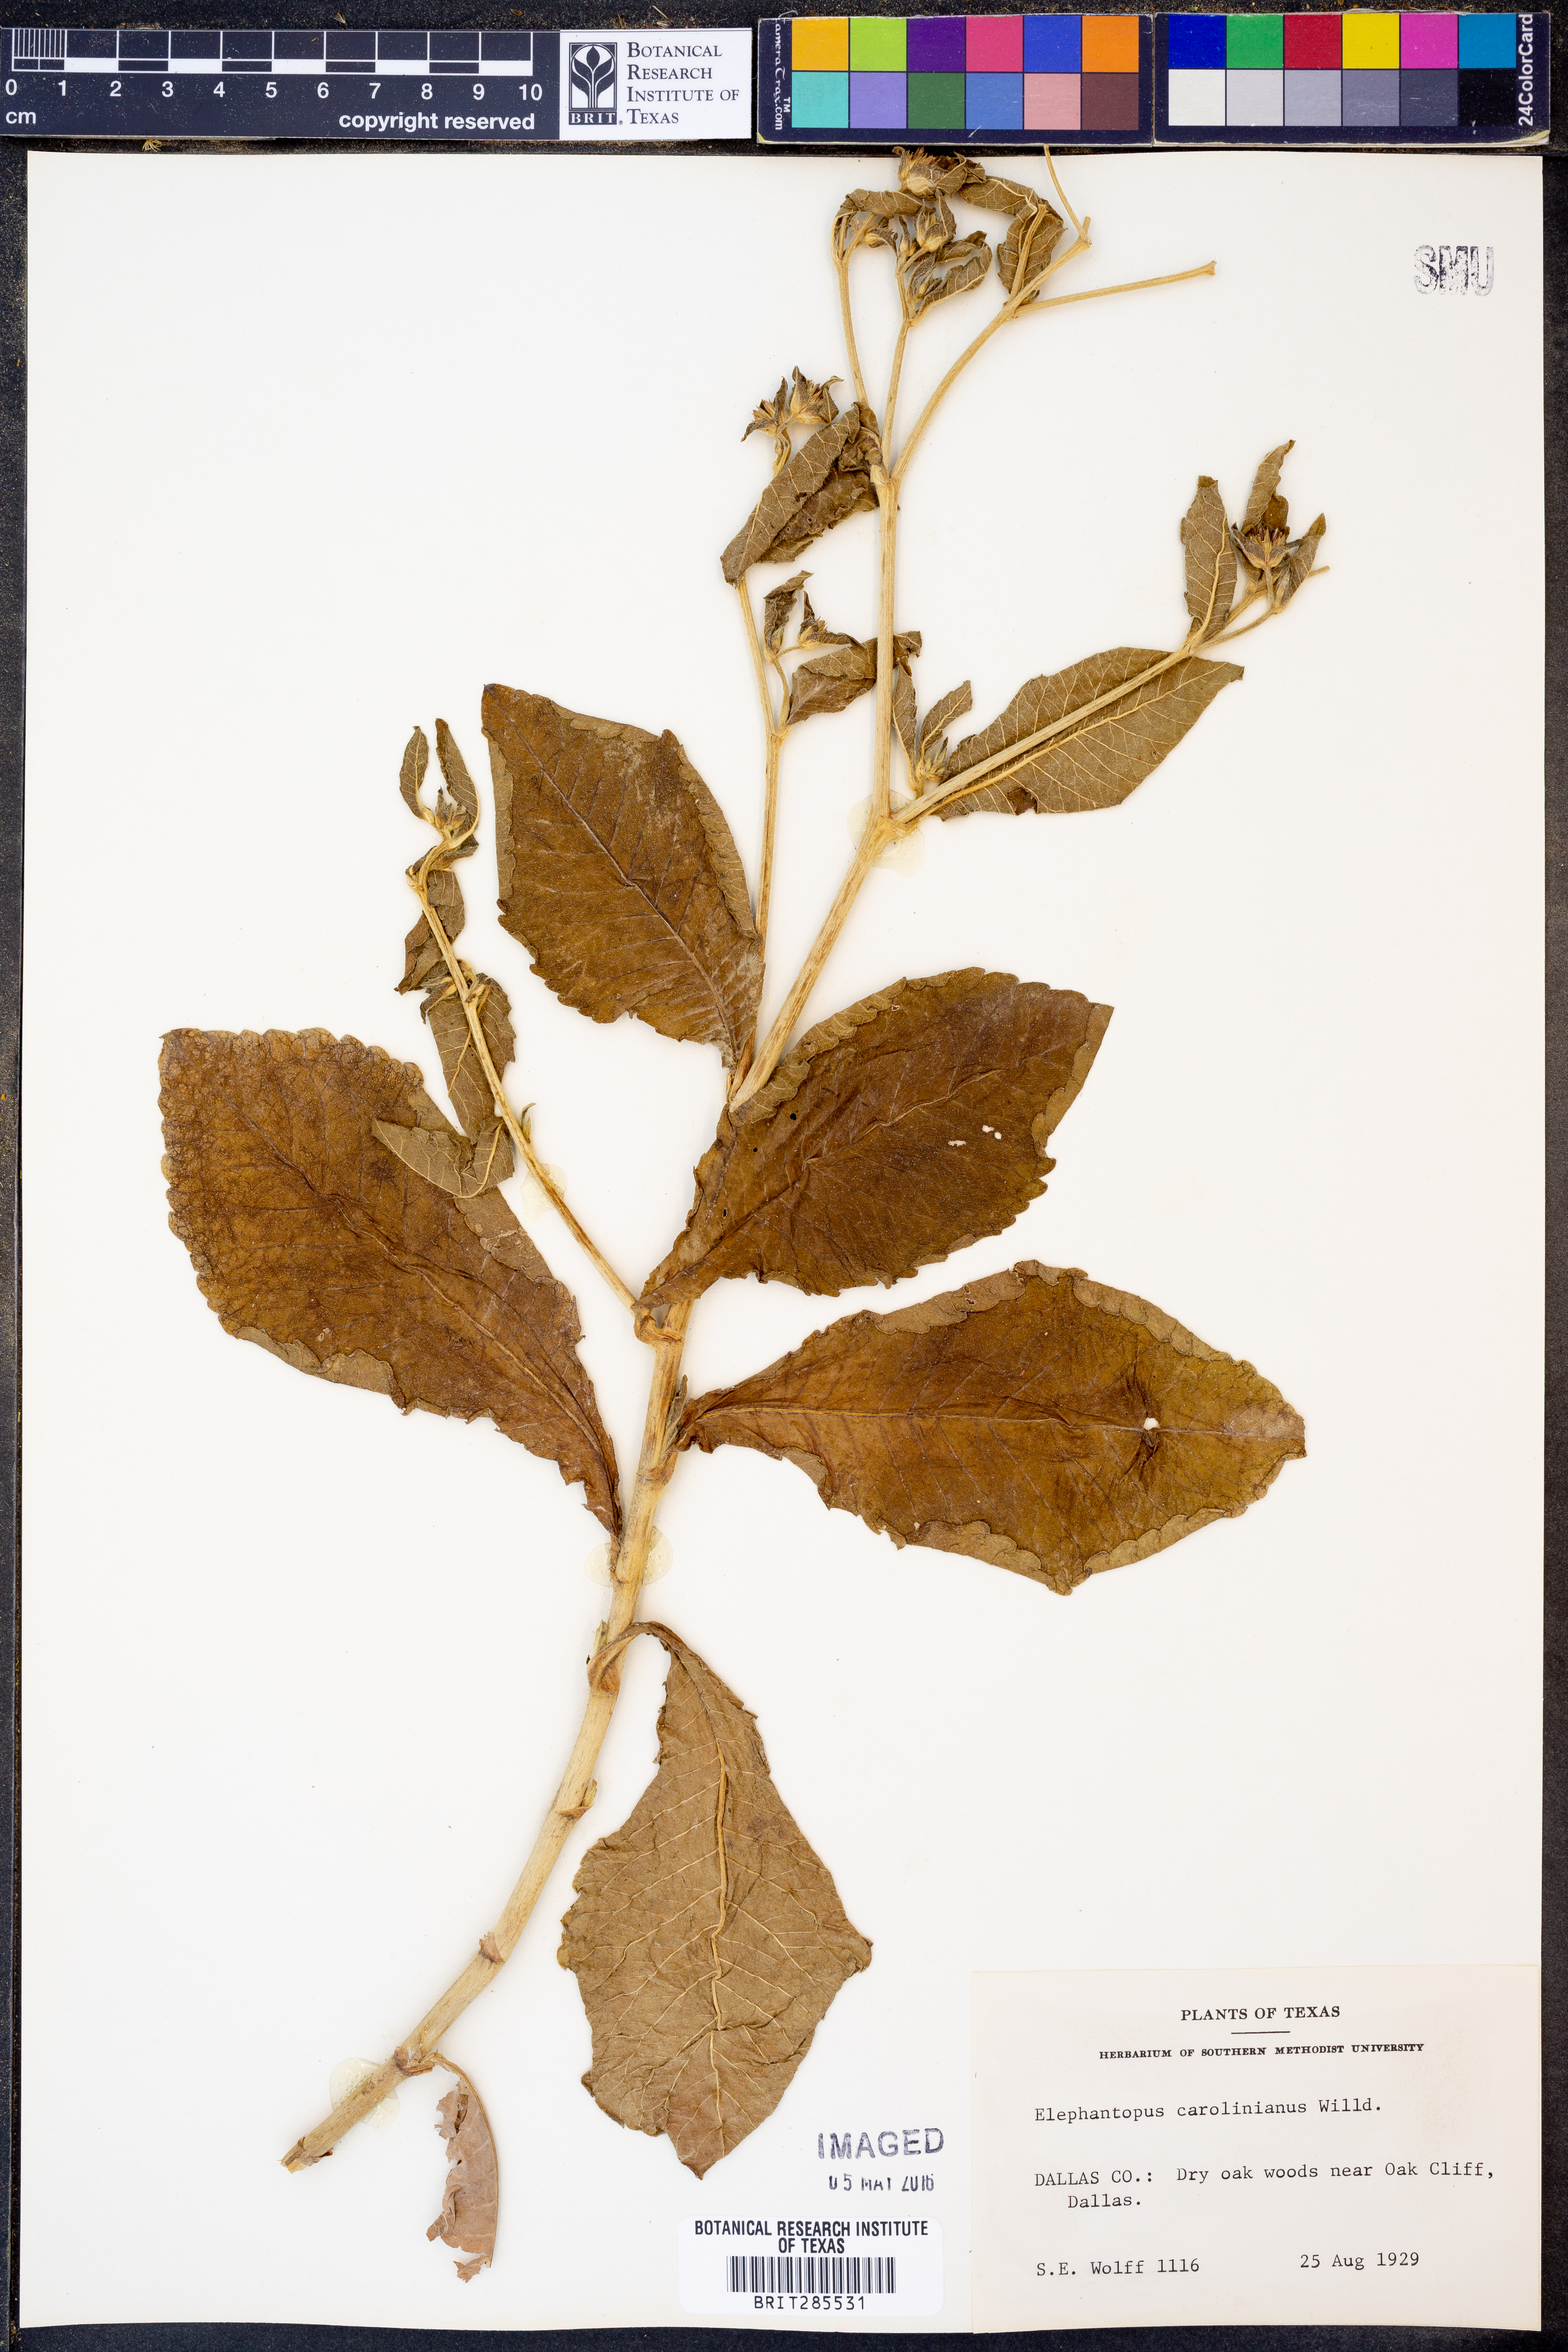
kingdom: Plantae
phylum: Tracheophyta
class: Magnoliopsida
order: Asterales
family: Asteraceae
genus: Elephantopus
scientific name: Elephantopus carolinianus
